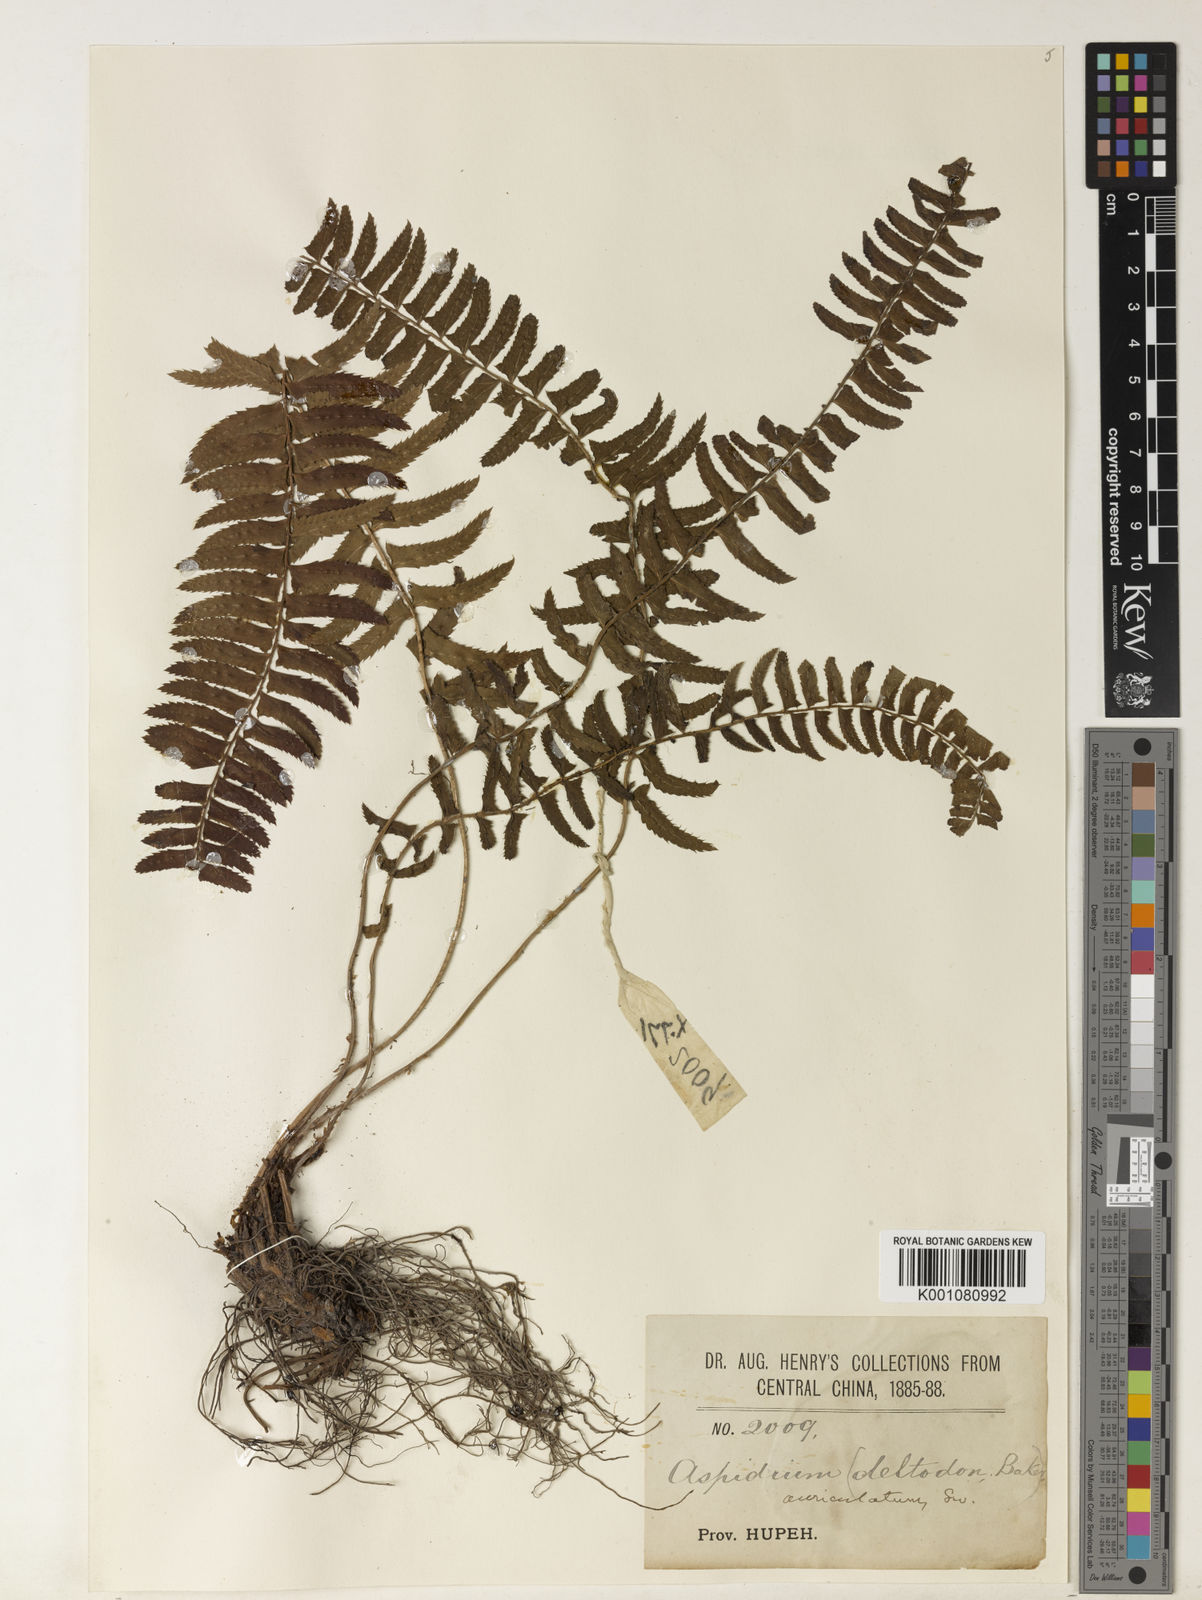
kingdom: Plantae
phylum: Tracheophyta
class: Polypodiopsida
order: Polypodiales
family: Nephrolepidaceae
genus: Nephrolepis
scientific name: Nephrolepis cordifolia
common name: Narrow swordfern
